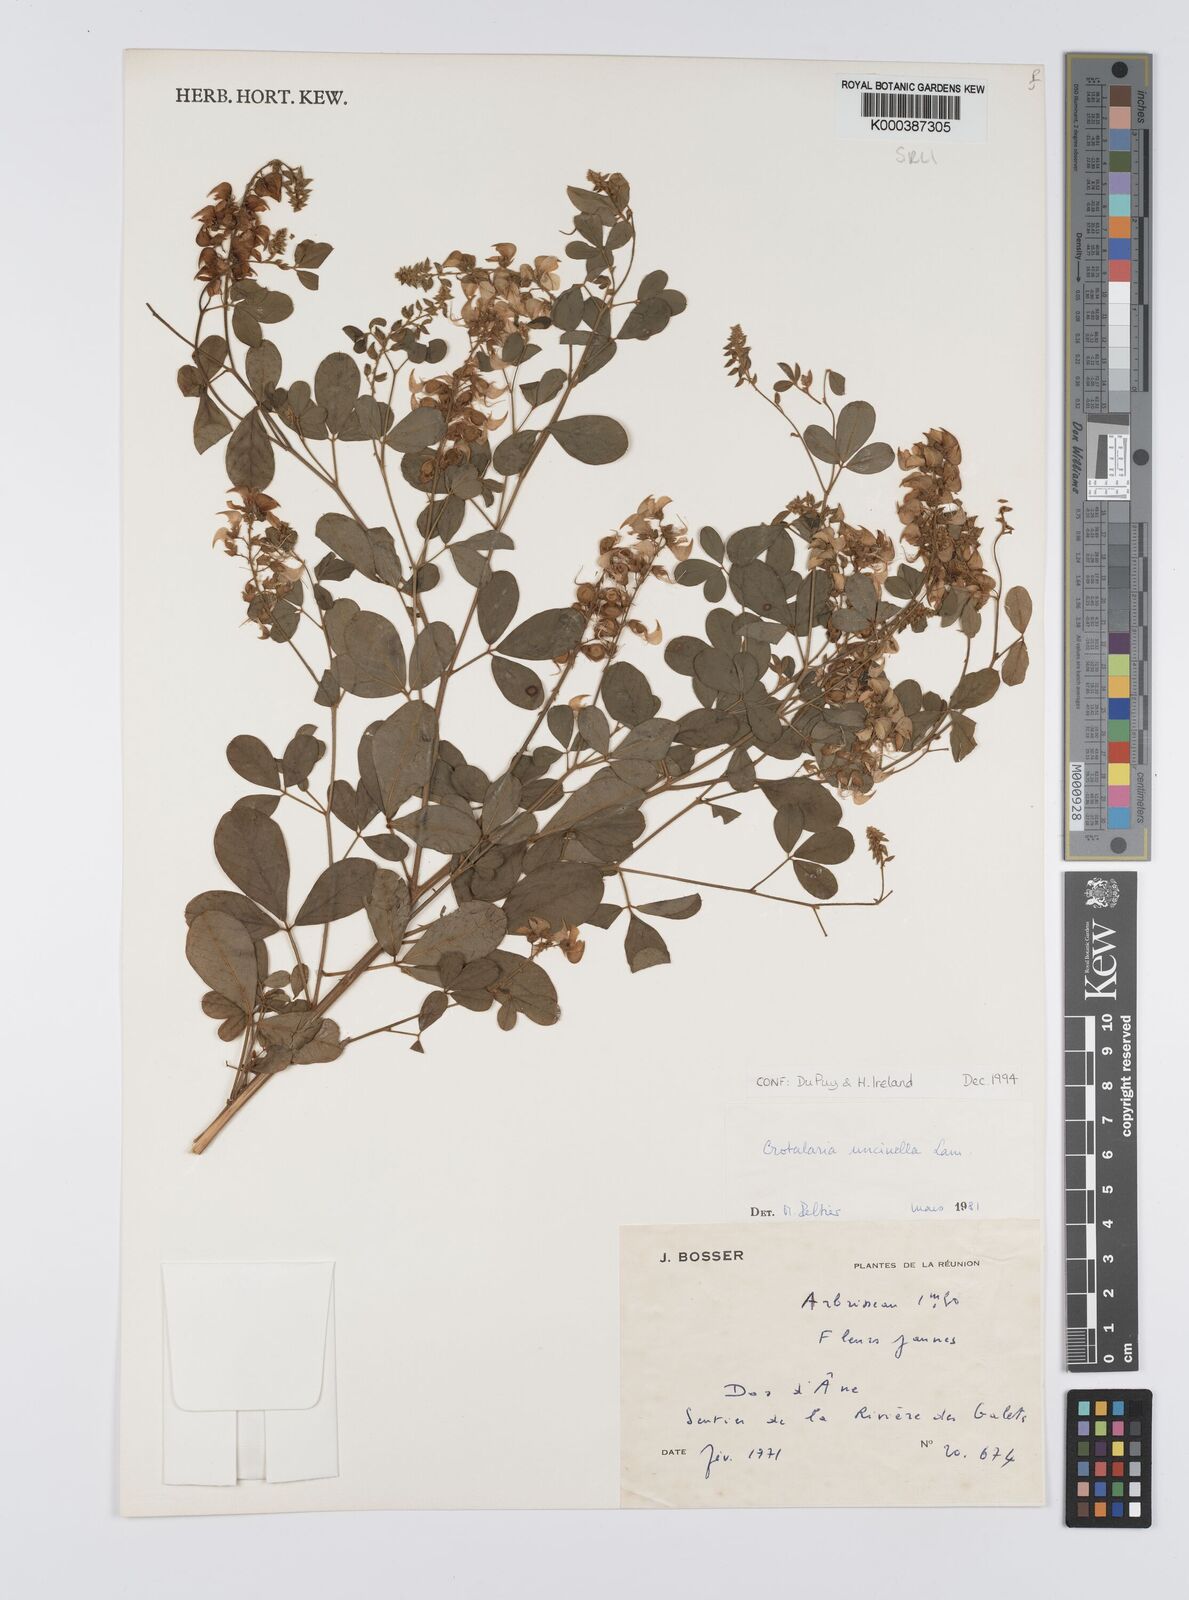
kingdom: Plantae
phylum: Tracheophyta
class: Magnoliopsida
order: Fabales
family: Fabaceae
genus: Crotalaria
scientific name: Crotalaria uncinella
